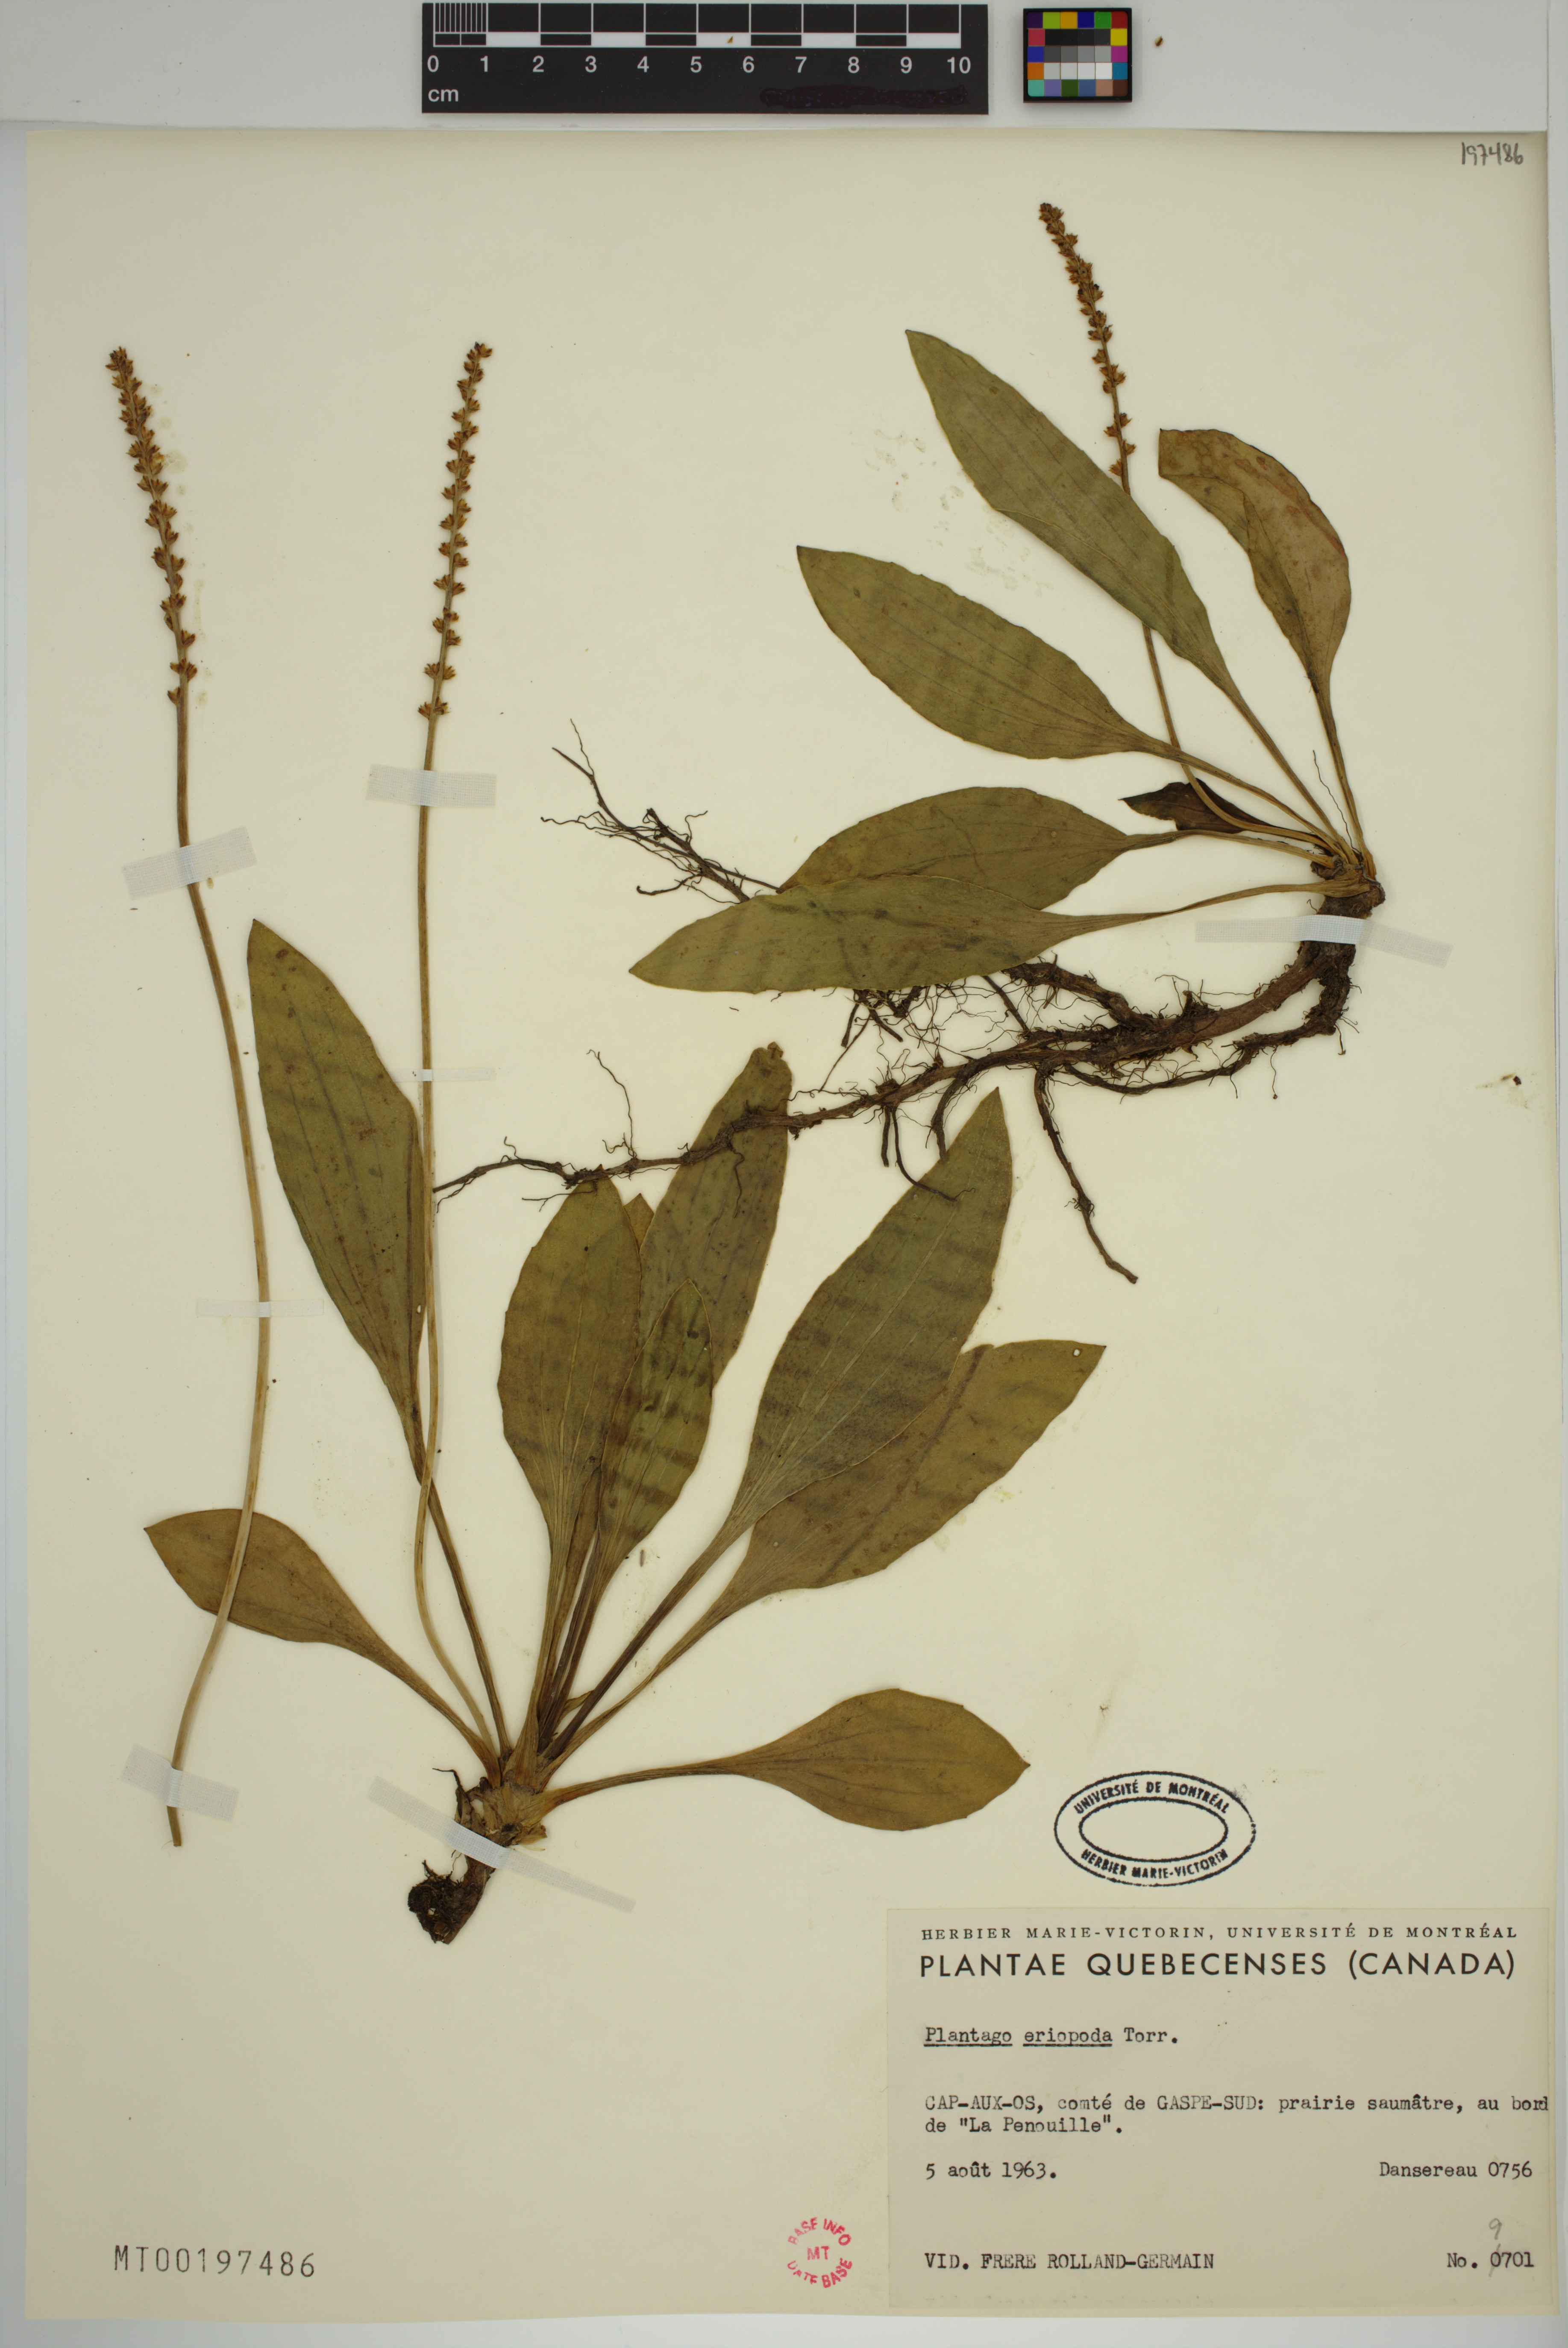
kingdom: Plantae
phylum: Tracheophyta
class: Magnoliopsida
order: Lamiales
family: Plantaginaceae
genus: Plantago
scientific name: Plantago eriopoda
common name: Alkali plantain
